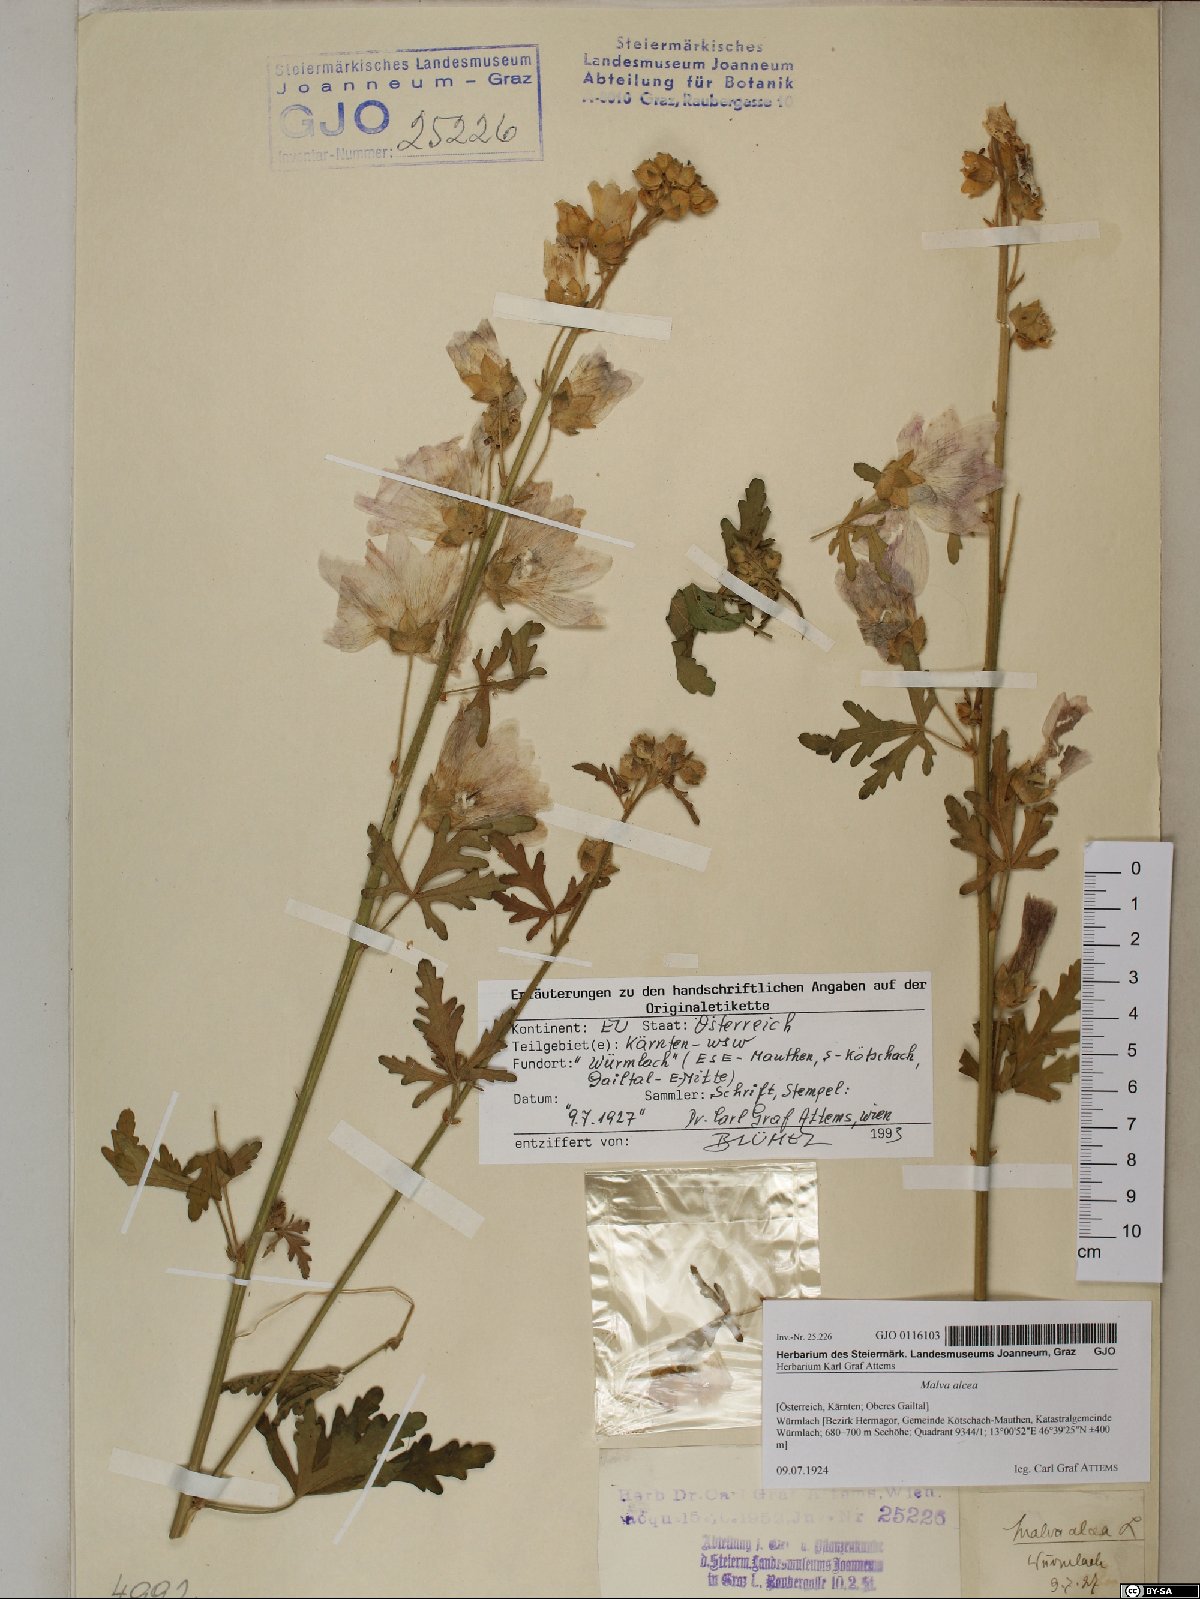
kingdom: Plantae
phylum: Tracheophyta
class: Magnoliopsida
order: Malvales
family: Malvaceae
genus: Malva
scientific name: Malva alcea
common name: Greater musk-mallow
